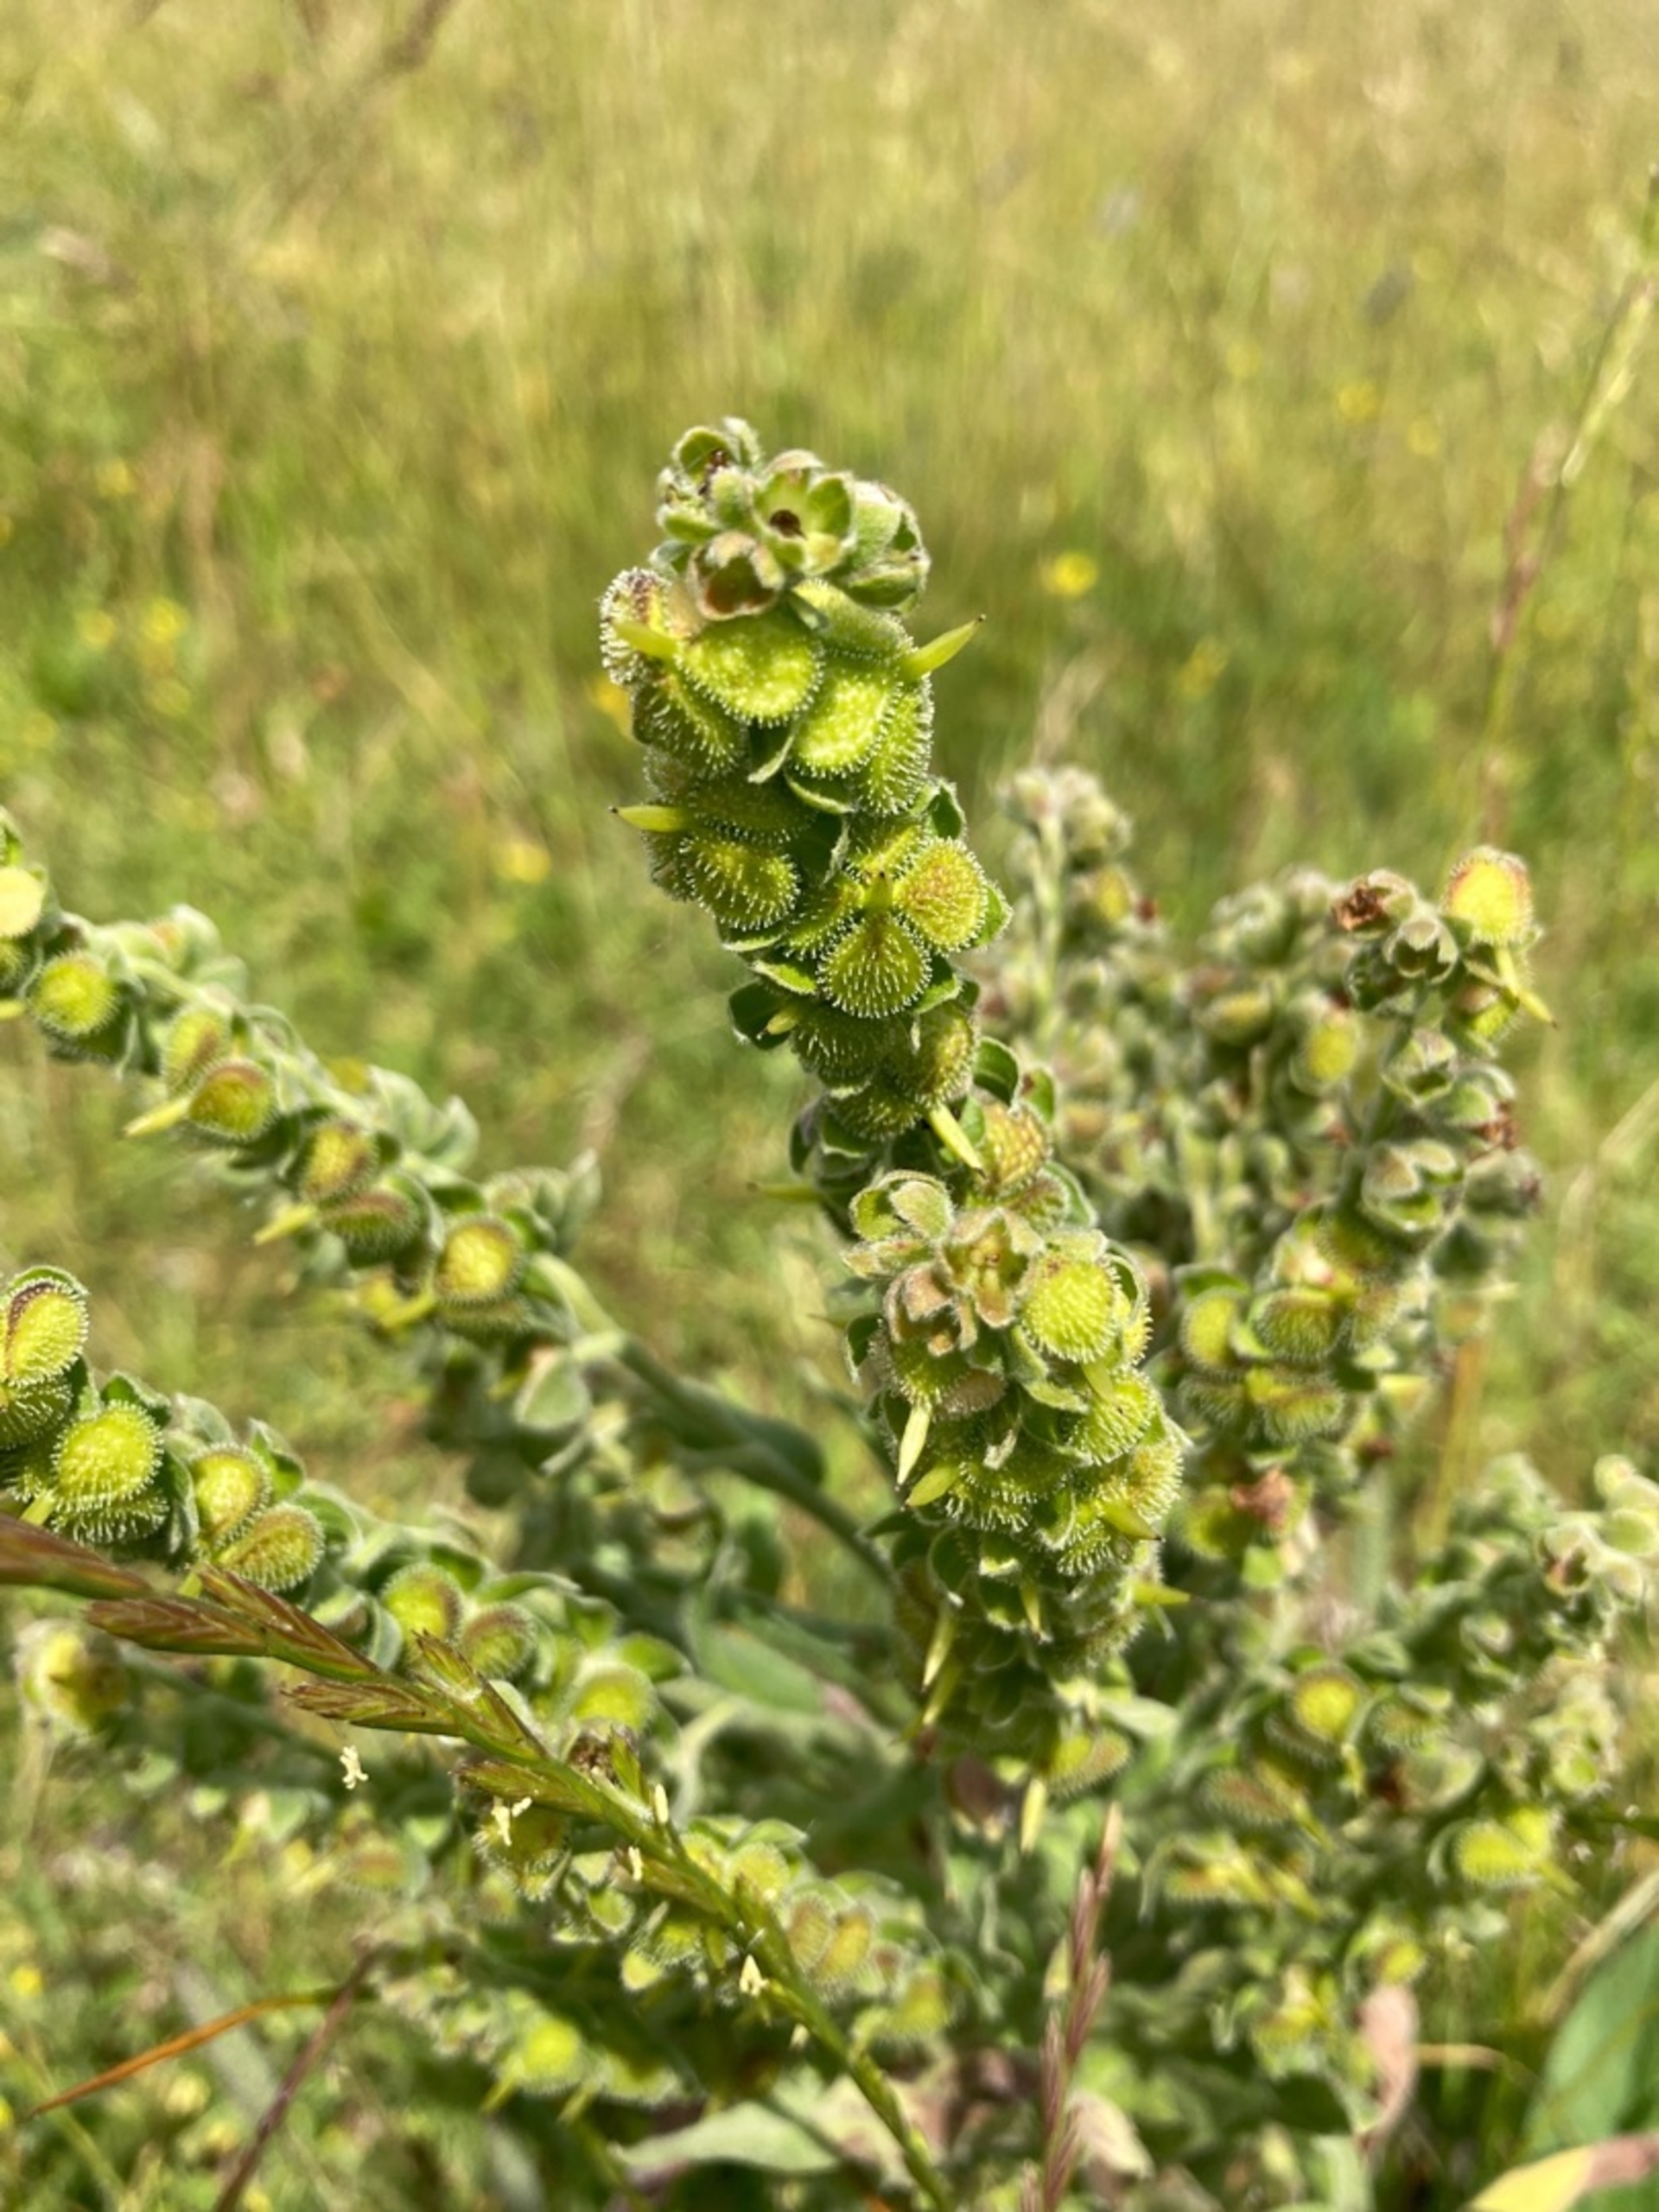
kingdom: Plantae
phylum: Tracheophyta
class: Magnoliopsida
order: Boraginales
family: Boraginaceae
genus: Cynoglossum
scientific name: Cynoglossum officinale
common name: Hundetunge
